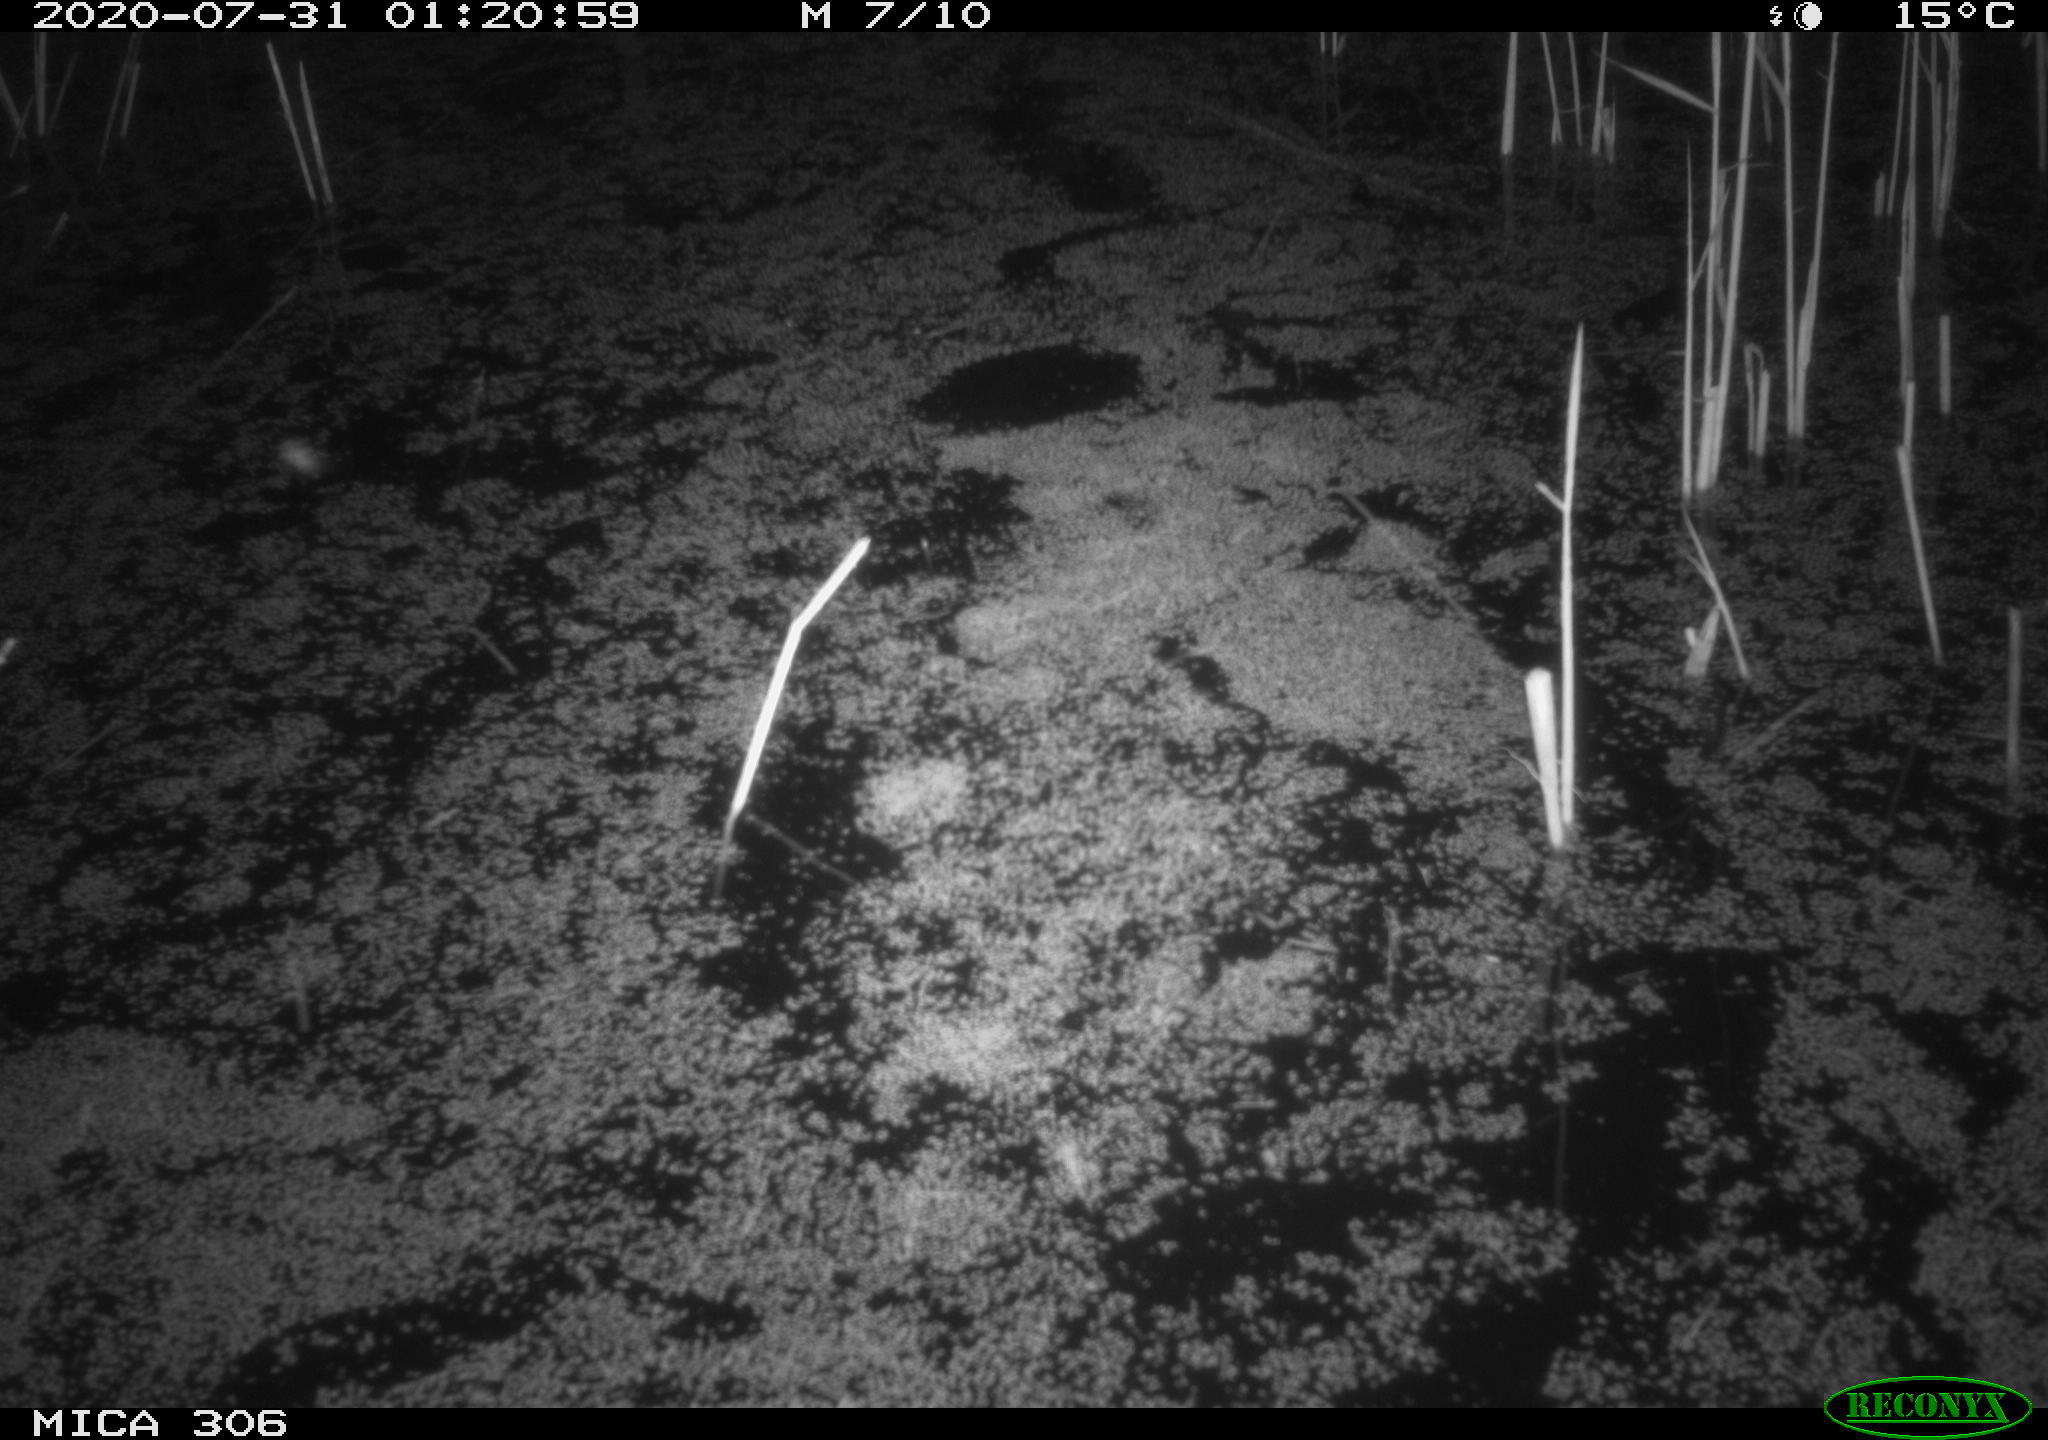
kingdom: Animalia
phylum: Chordata
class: Mammalia
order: Rodentia
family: Cricetidae
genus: Ondatra
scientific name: Ondatra zibethicus
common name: Muskrat
